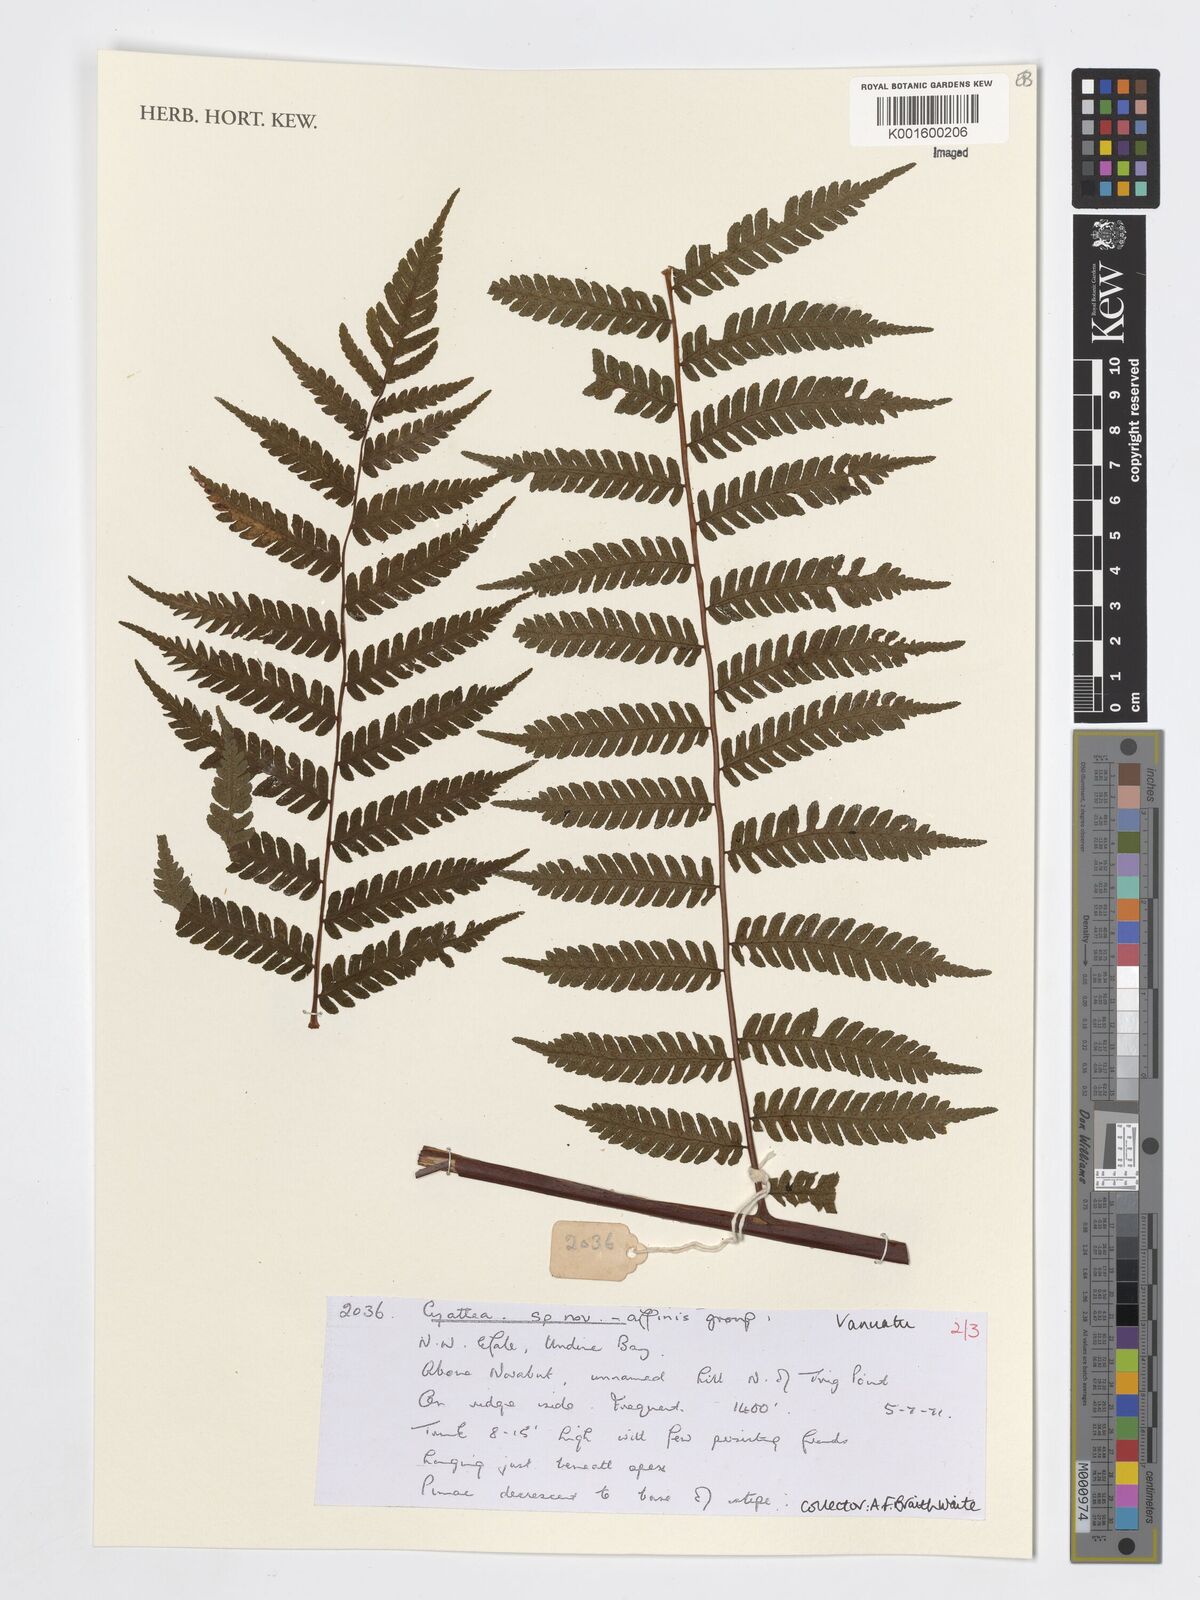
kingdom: Plantae
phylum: Tracheophyta
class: Polypodiopsida
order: Cyatheales
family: Cyatheaceae
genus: Cyathea
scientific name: Cyathea
